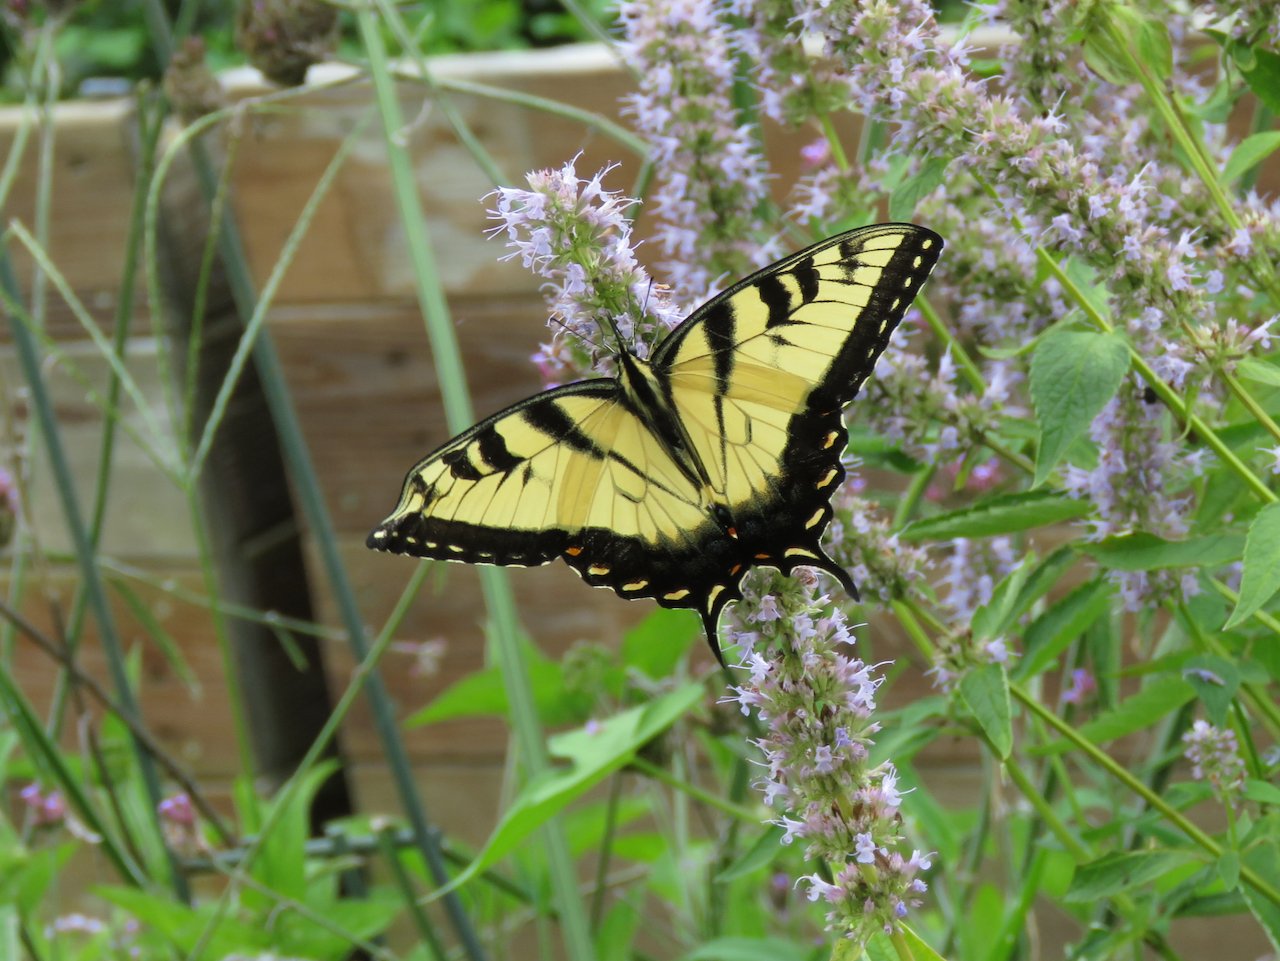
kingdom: Animalia
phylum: Arthropoda
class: Insecta
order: Lepidoptera
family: Papilionidae
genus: Pterourus
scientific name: Pterourus glaucus
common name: Eastern Tiger Swallowtail
